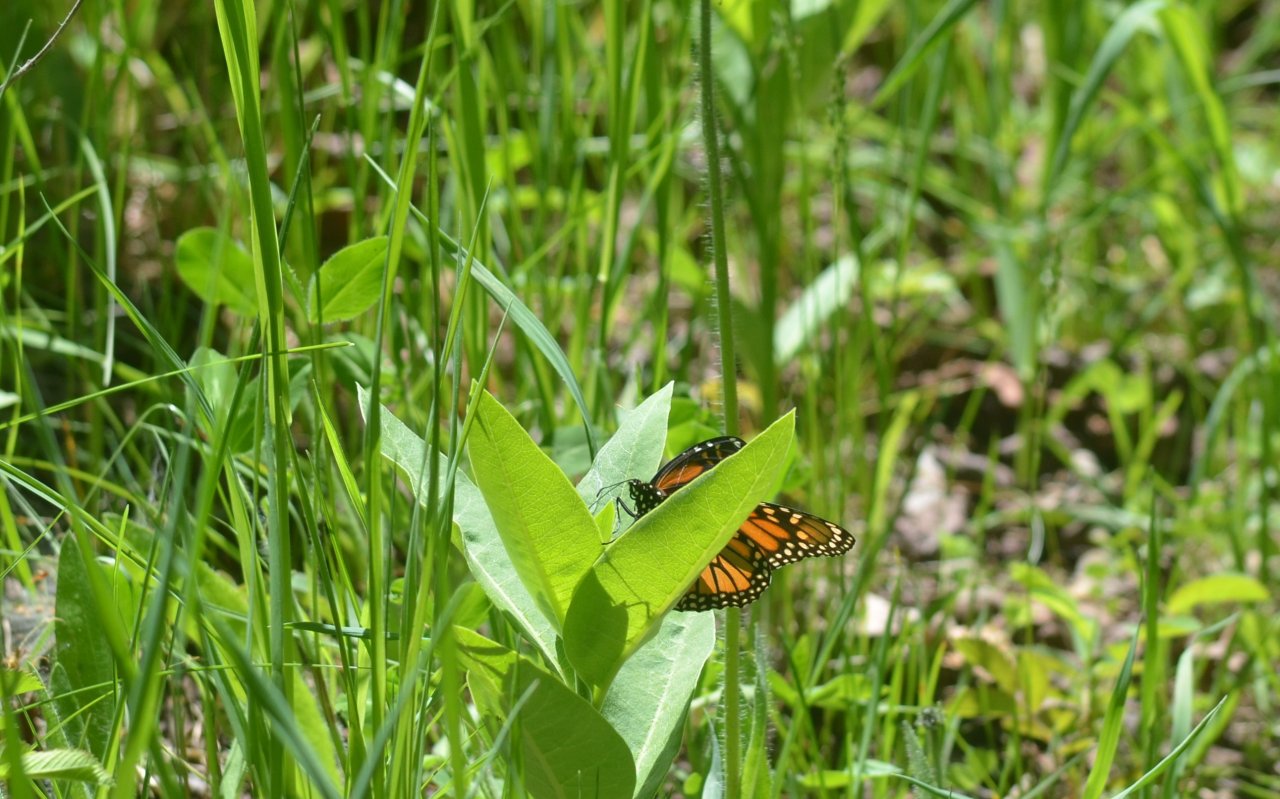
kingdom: Animalia
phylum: Arthropoda
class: Insecta
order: Lepidoptera
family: Nymphalidae
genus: Danaus
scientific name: Danaus plexippus
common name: Monarch
